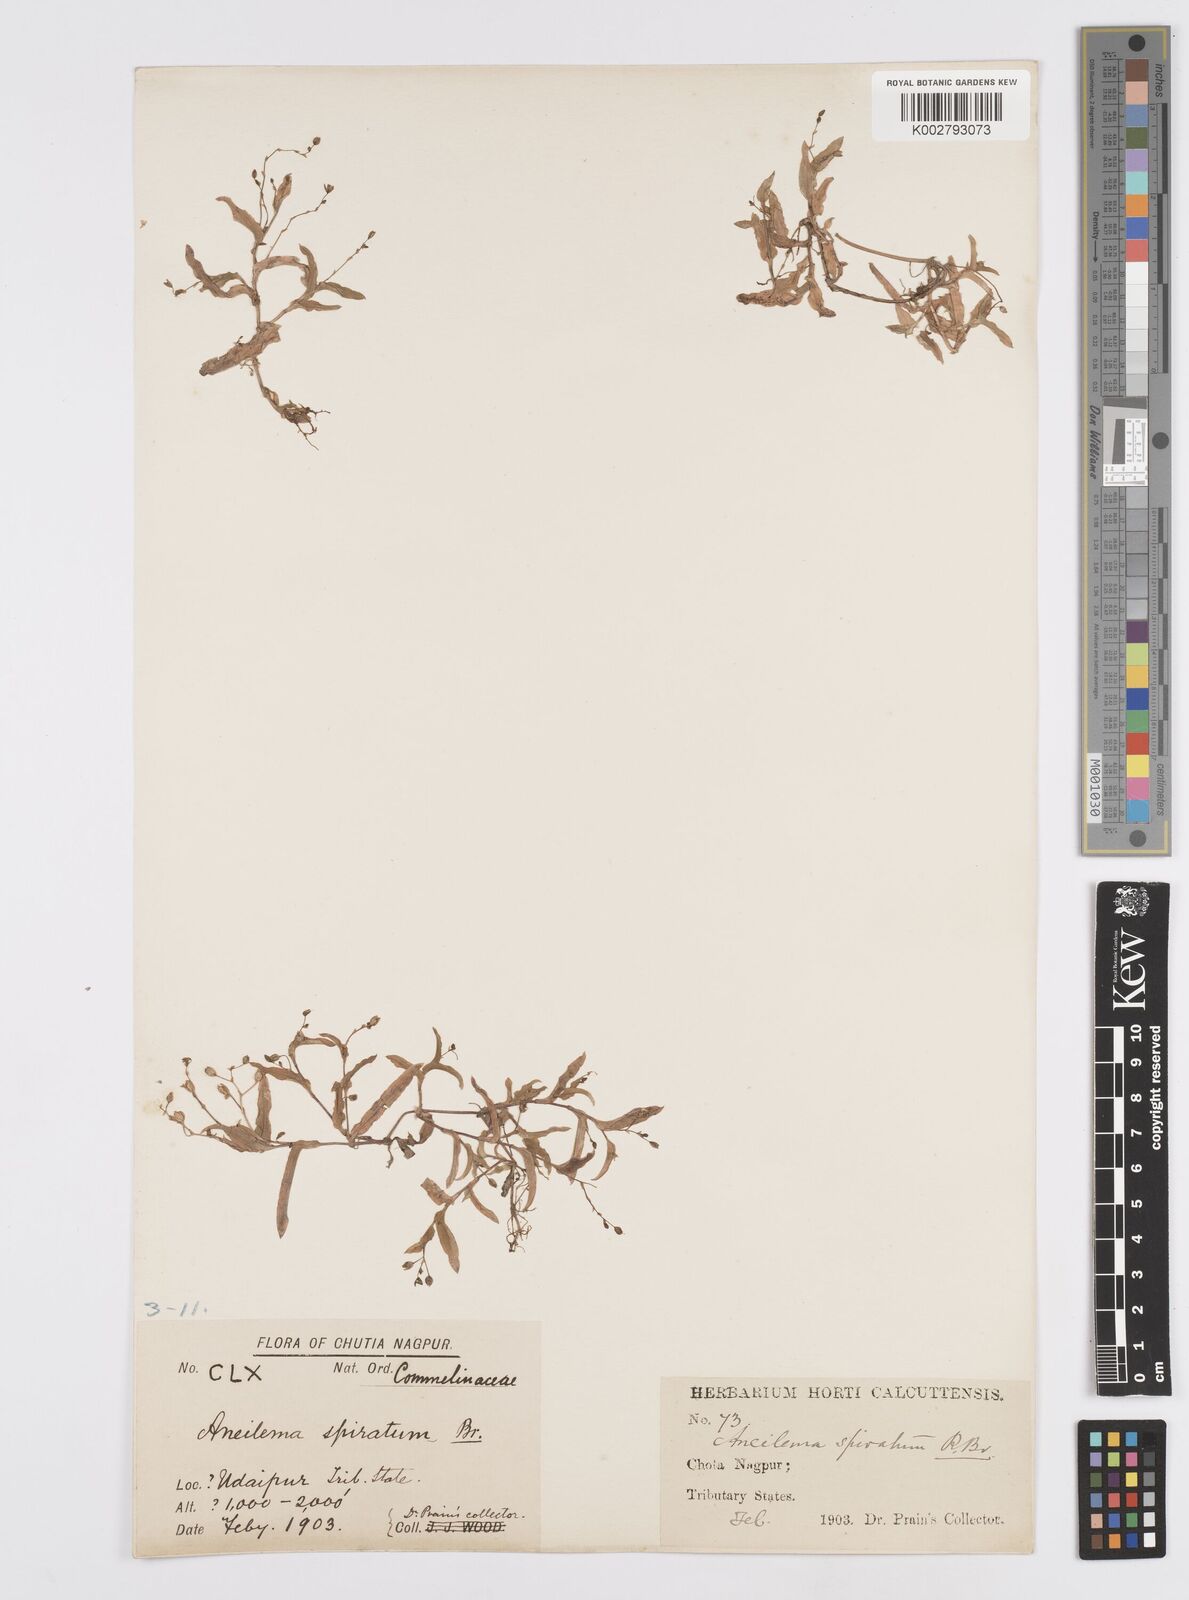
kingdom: Plantae
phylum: Tracheophyta
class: Liliopsida
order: Commelinales
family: Commelinaceae
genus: Murdannia
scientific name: Murdannia spirata
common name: Asiatic dewflower
